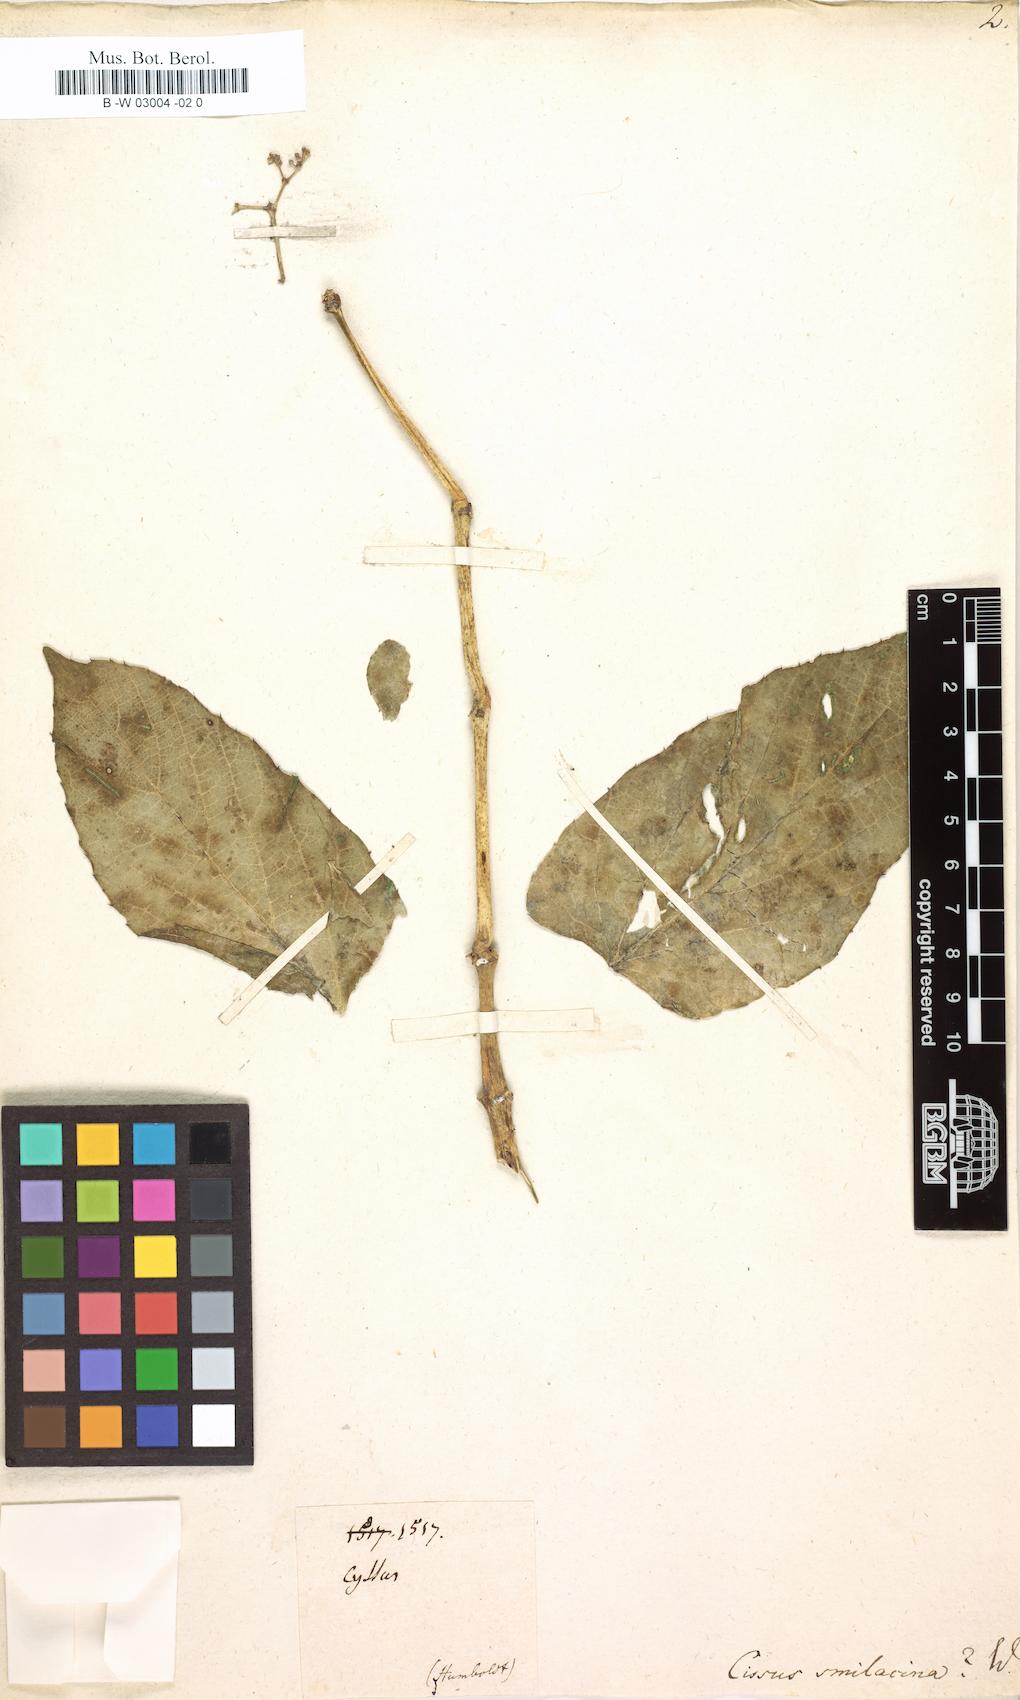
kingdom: Plantae
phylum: Tracheophyta
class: Magnoliopsida
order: Vitales
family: Vitaceae
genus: Cissus
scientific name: Cissus tiliacea
